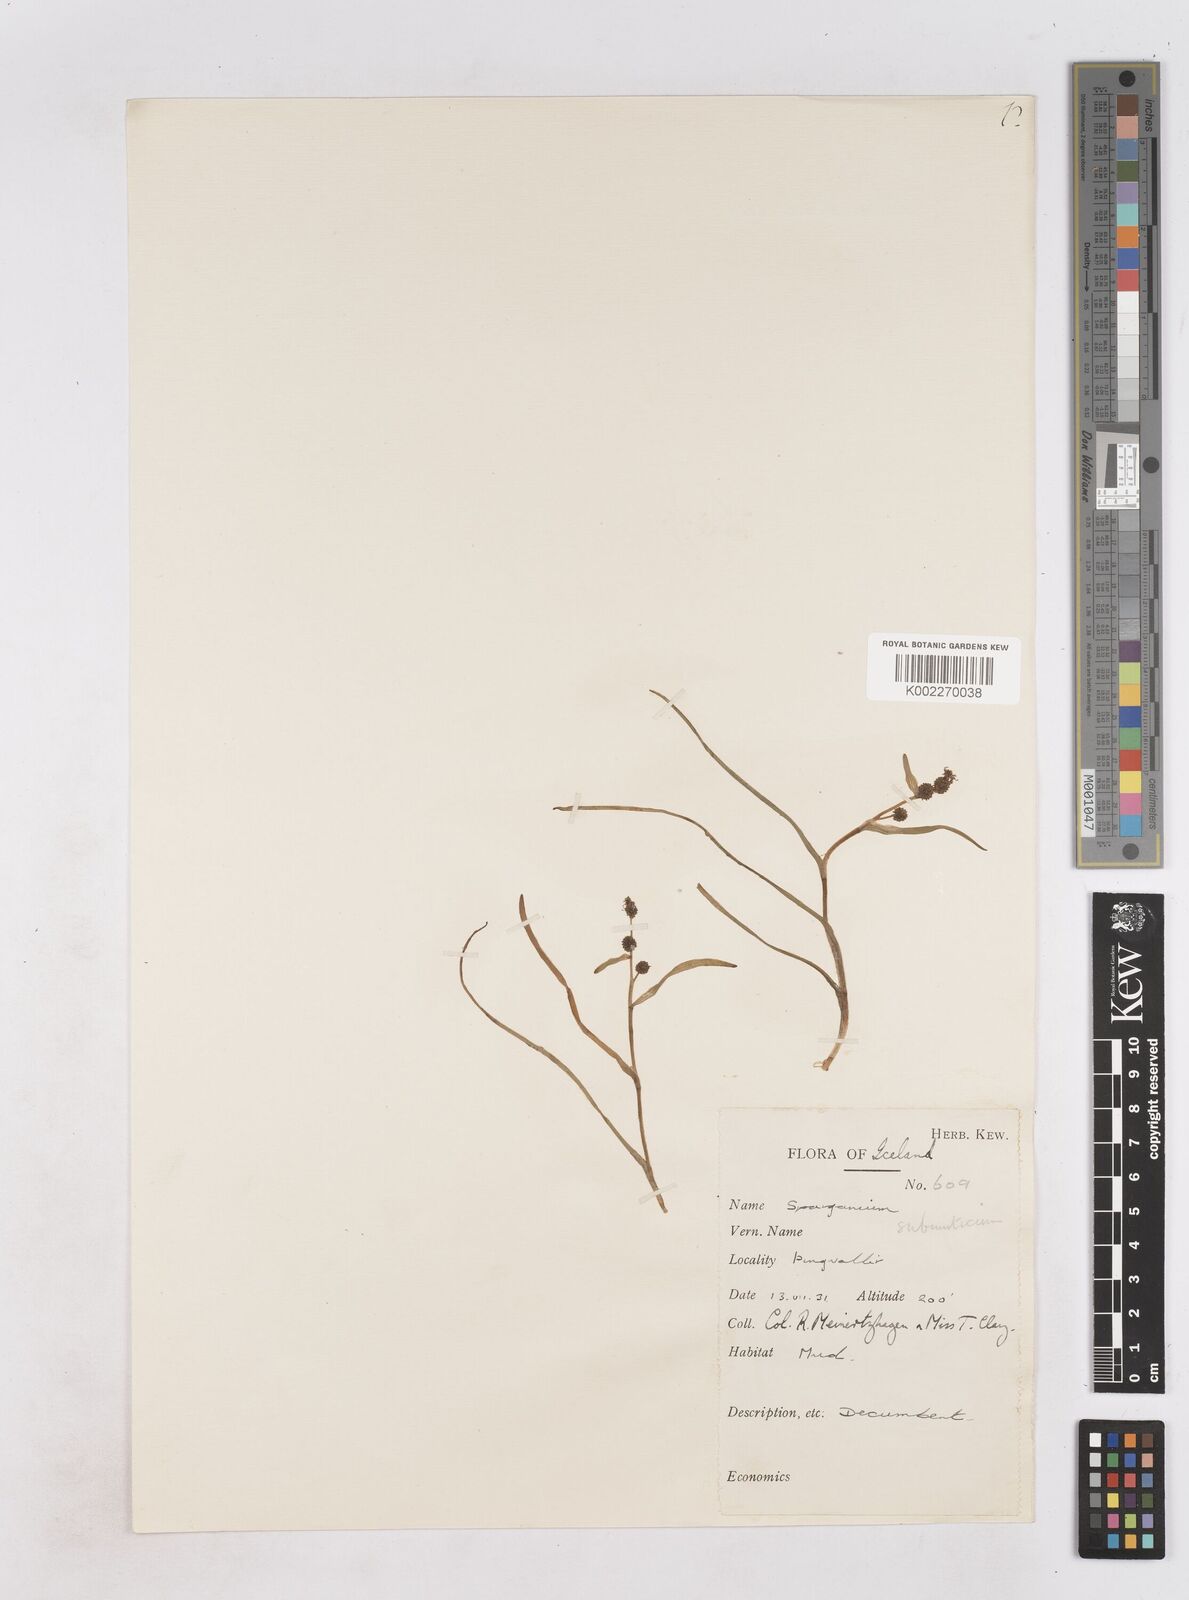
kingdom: Plantae
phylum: Tracheophyta
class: Liliopsida
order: Poales
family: Typhaceae
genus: Sparganium
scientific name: Sparganium hyperboreum
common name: Arctic burreed
